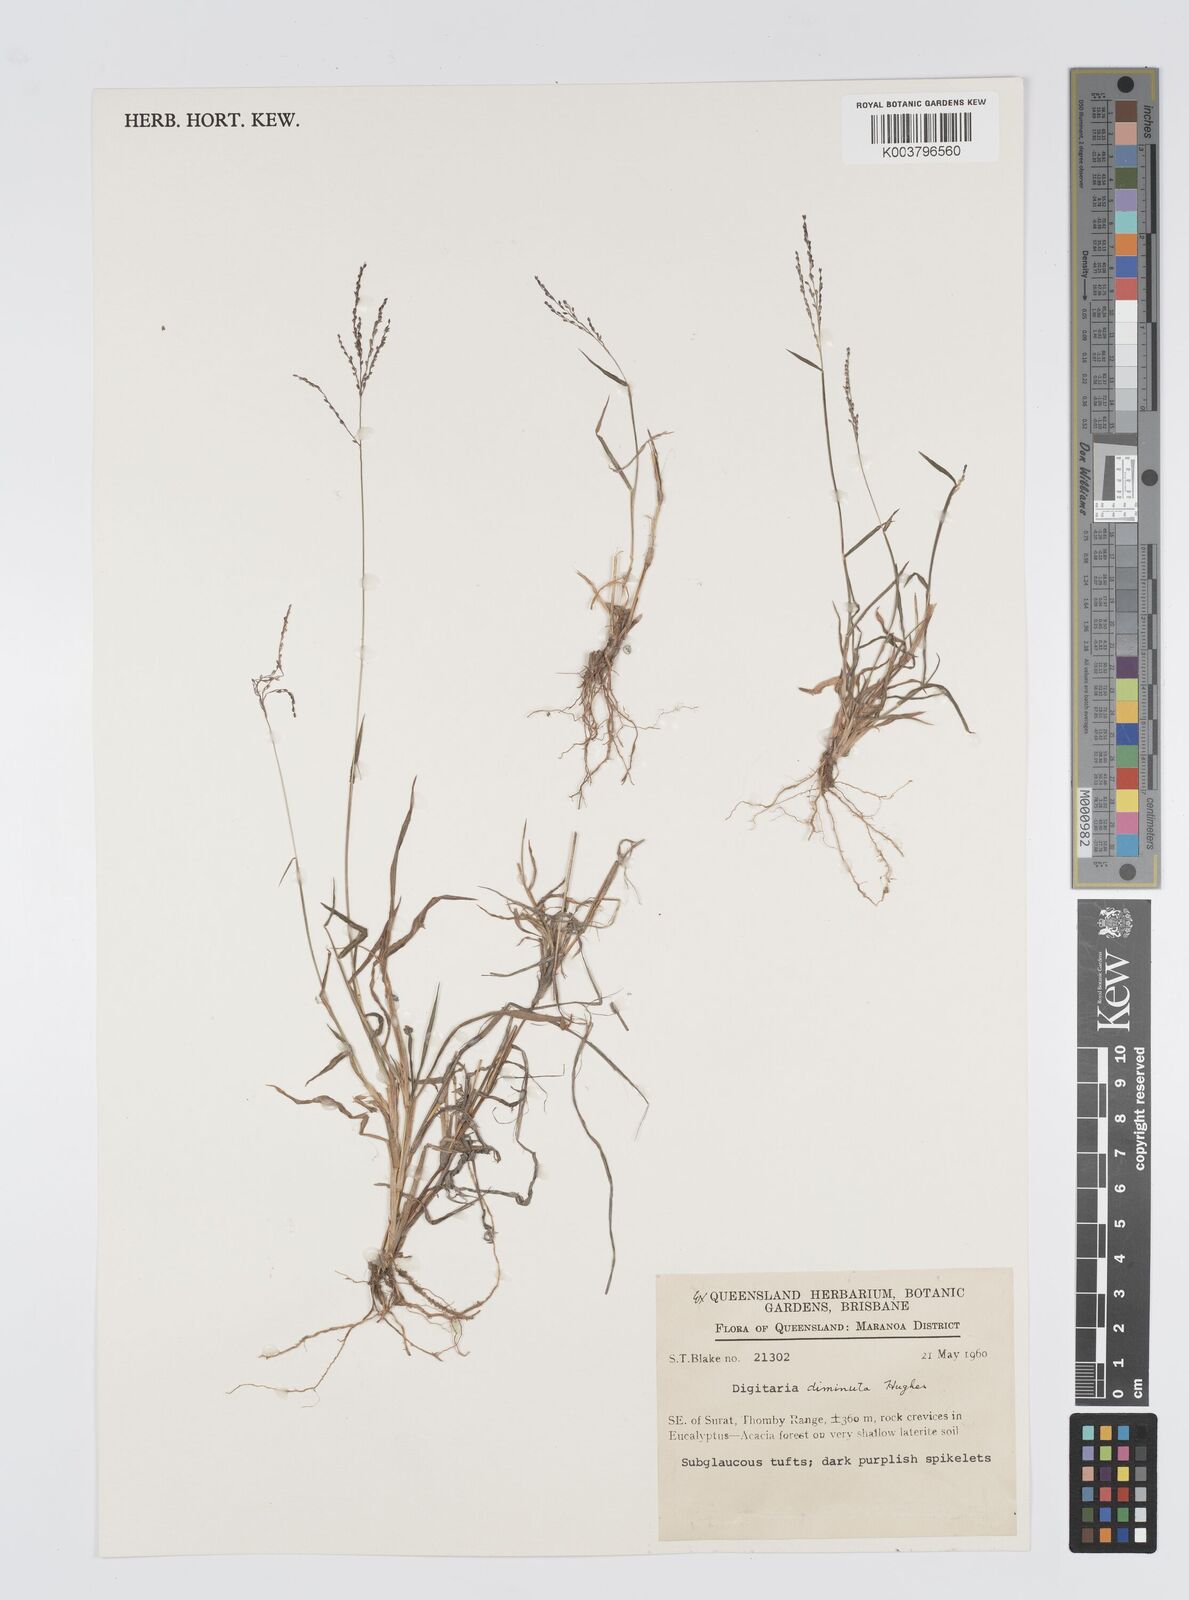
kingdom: Plantae
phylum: Tracheophyta
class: Liliopsida
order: Poales
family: Poaceae
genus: Digitaria
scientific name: Digitaria breviglumis
